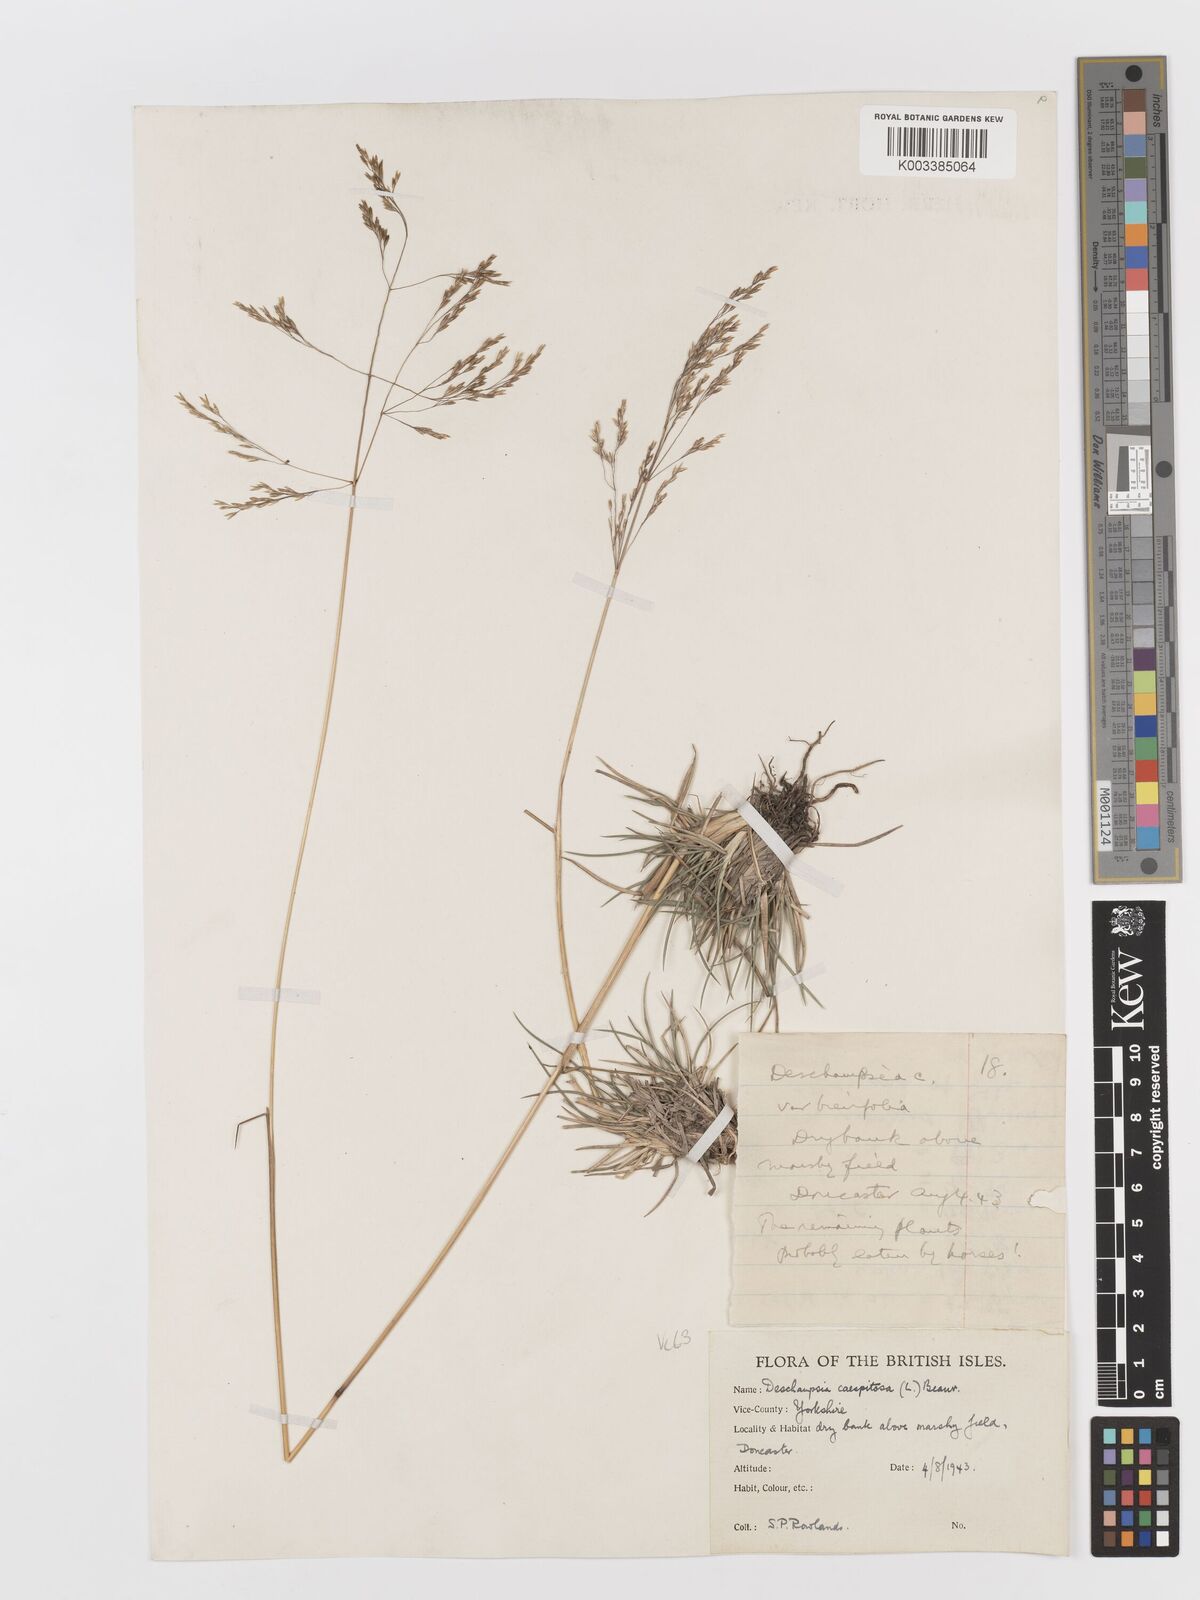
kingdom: Plantae
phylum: Tracheophyta
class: Liliopsida
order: Poales
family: Poaceae
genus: Deschampsia
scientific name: Deschampsia cespitosa
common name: Tufted hair-grass
